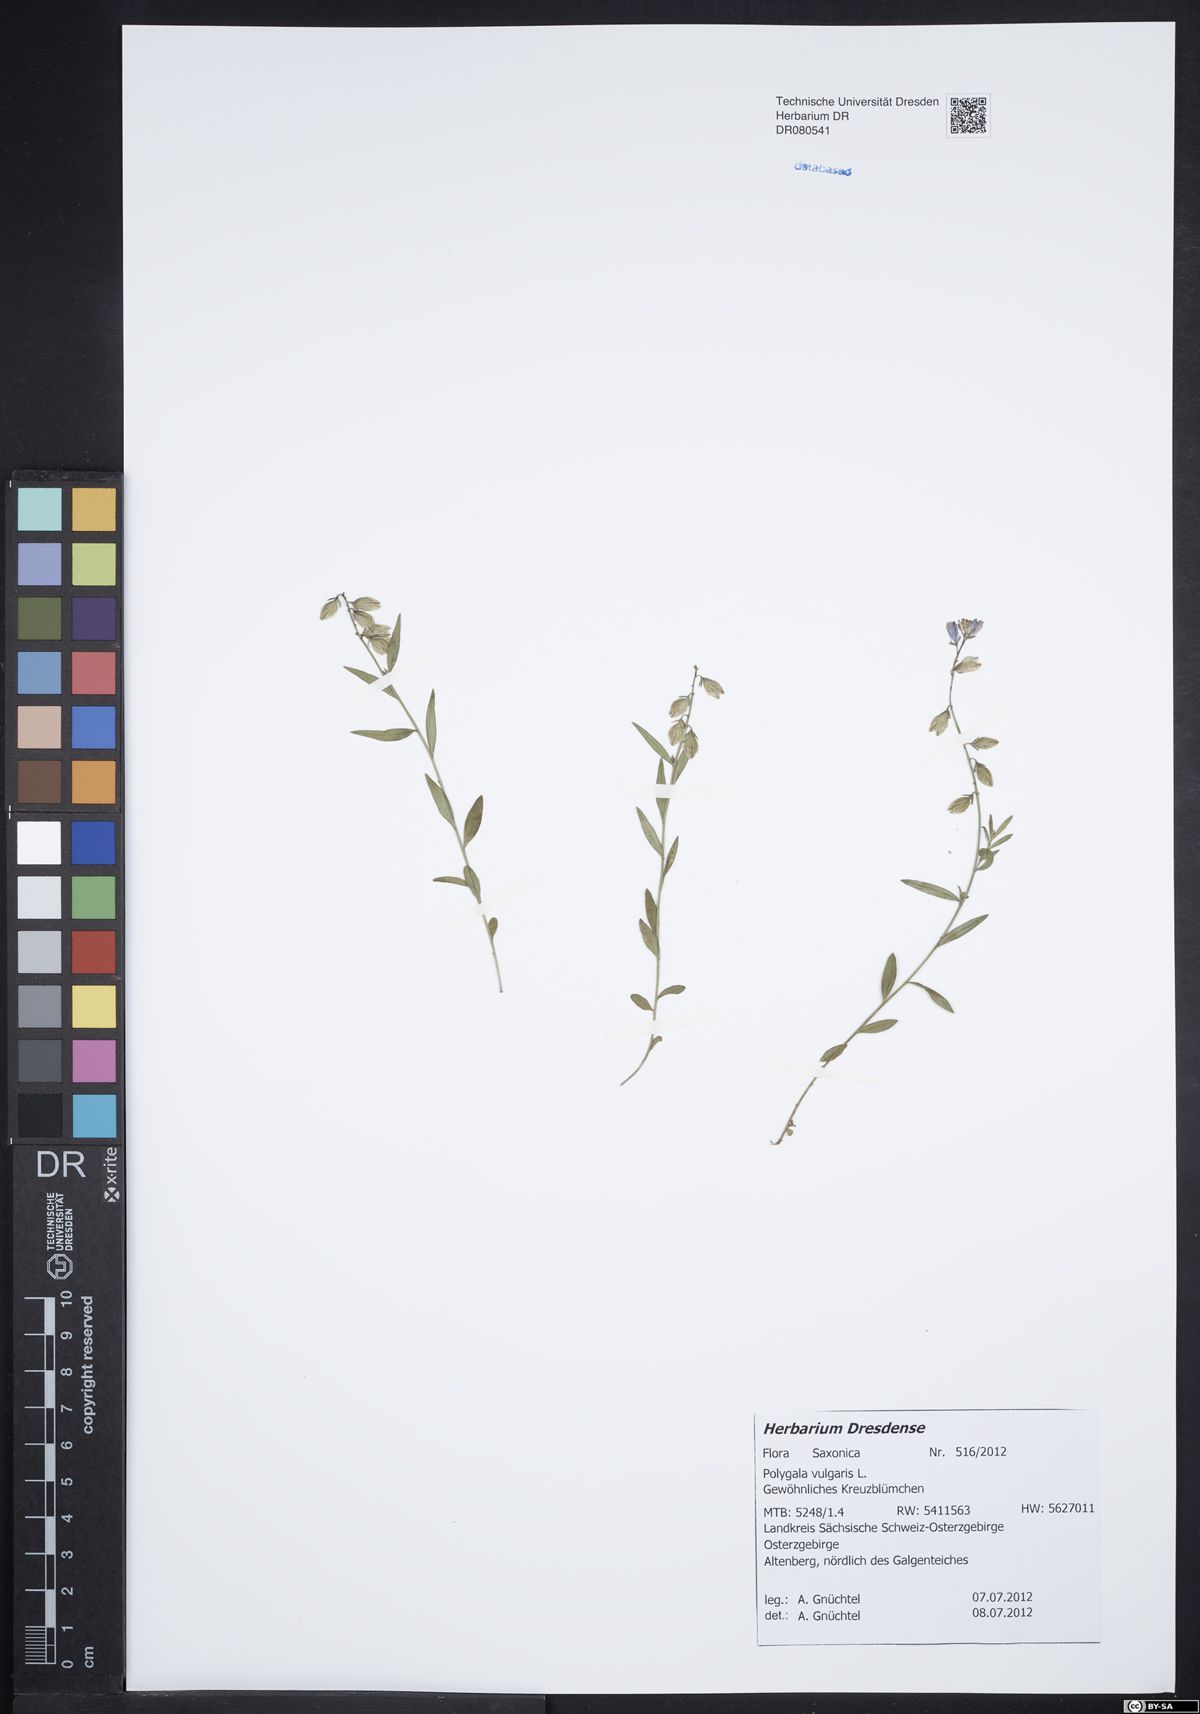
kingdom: Plantae
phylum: Tracheophyta
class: Magnoliopsida
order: Fabales
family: Polygalaceae
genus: Polygala
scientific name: Polygala vulgaris
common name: Common milkwort
